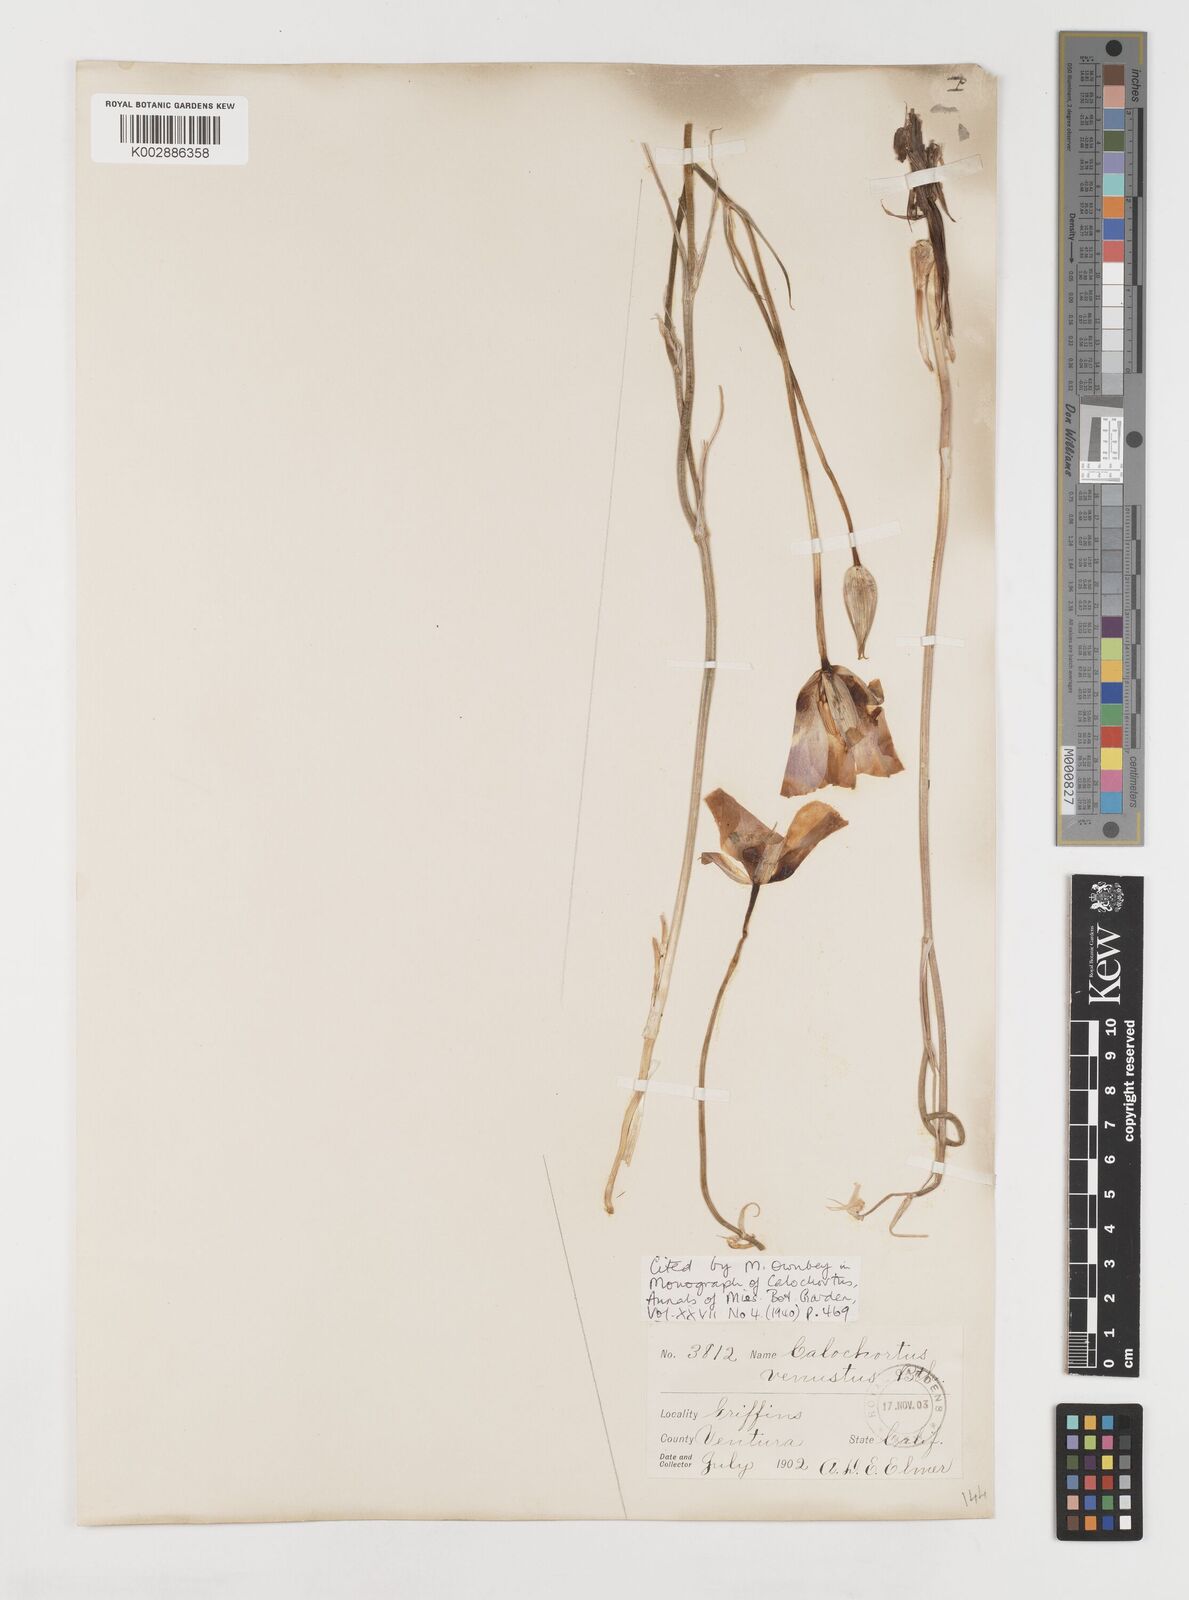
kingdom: Plantae
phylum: Tracheophyta
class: Liliopsida
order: Liliales
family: Liliaceae
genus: Calochortus
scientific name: Calochortus venustus
